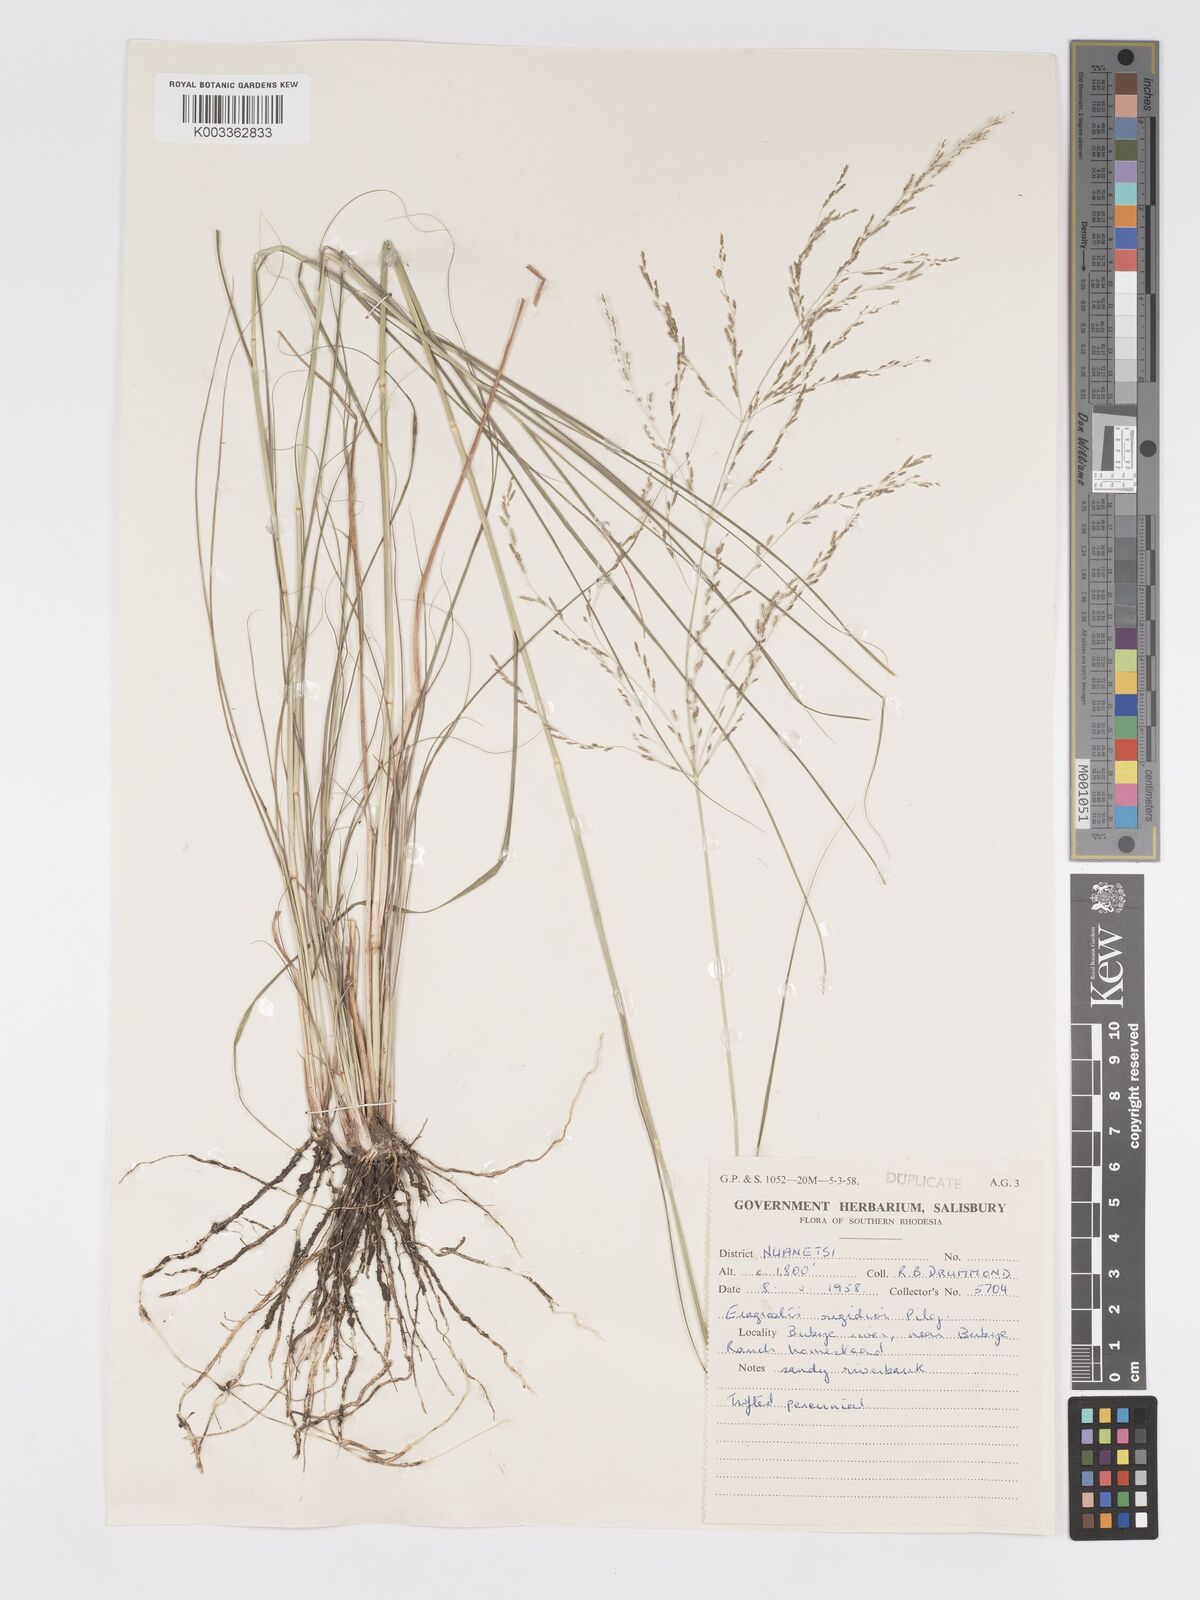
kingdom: Plantae
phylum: Tracheophyta
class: Liliopsida
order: Poales
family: Poaceae
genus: Eragrostis
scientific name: Eragrostis cylindriflora
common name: Cylinderflower lovegrass
